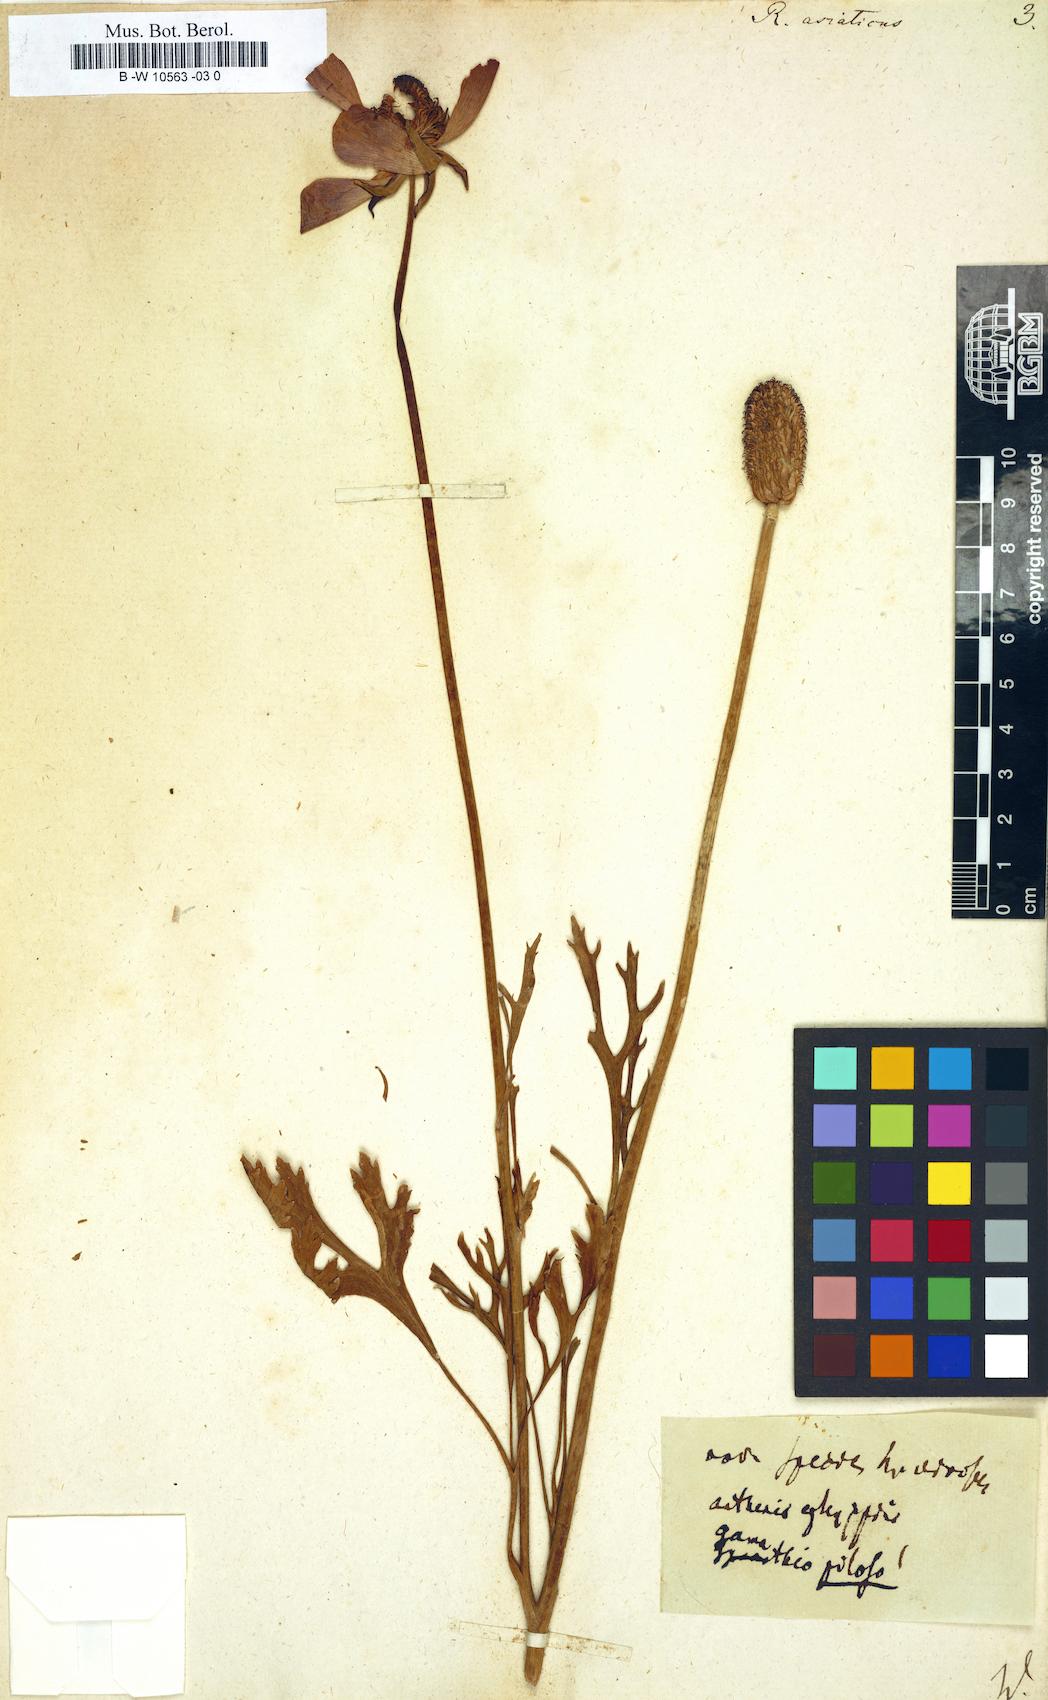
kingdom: Plantae
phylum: Tracheophyta
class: Magnoliopsida
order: Ranunculales
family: Ranunculaceae
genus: Ranunculus
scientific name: Ranunculus asiaticus
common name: Persian buttercup
